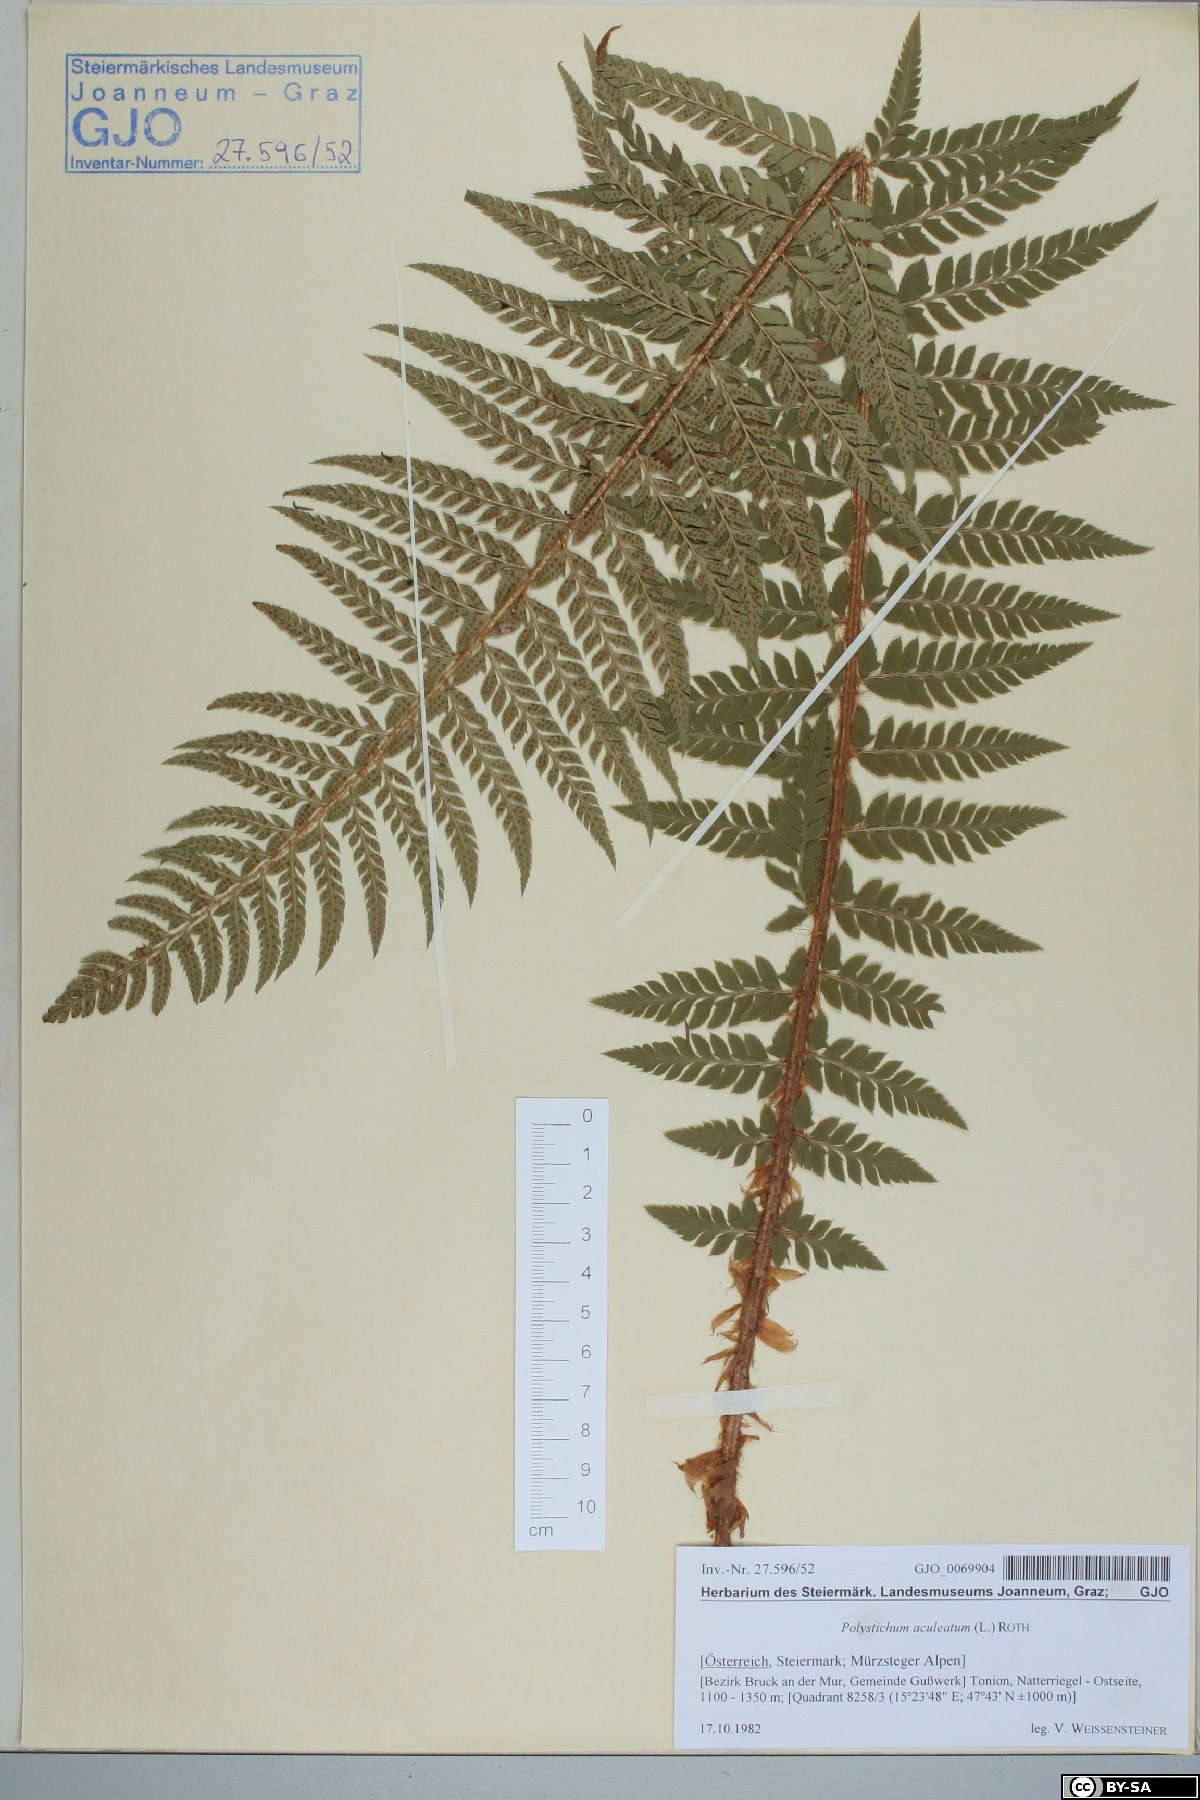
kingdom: Plantae
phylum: Tracheophyta
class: Polypodiopsida
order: Polypodiales
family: Dryopteridaceae
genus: Polystichum
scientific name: Polystichum aculeatum
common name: Hard shield-fern
